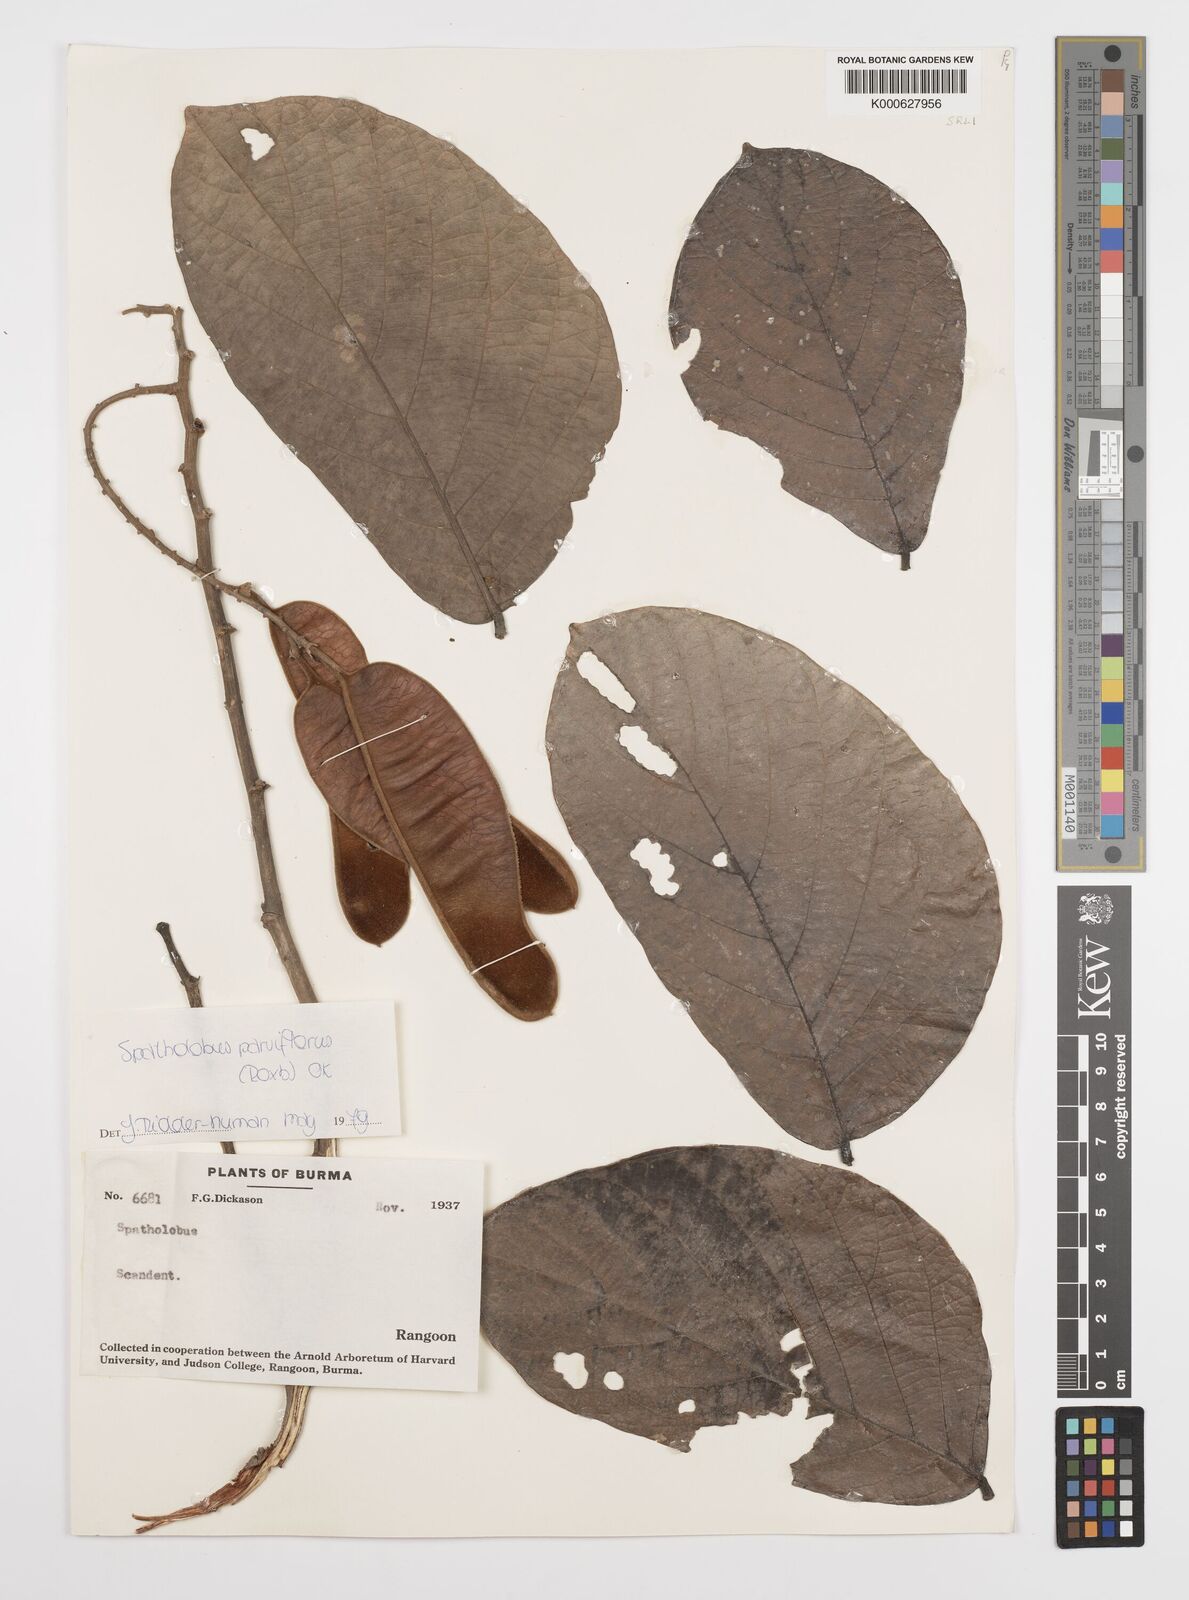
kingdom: Plantae
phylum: Tracheophyta
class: Magnoliopsida
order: Fabales
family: Fabaceae
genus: Spatholobus
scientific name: Spatholobus parviflorus
